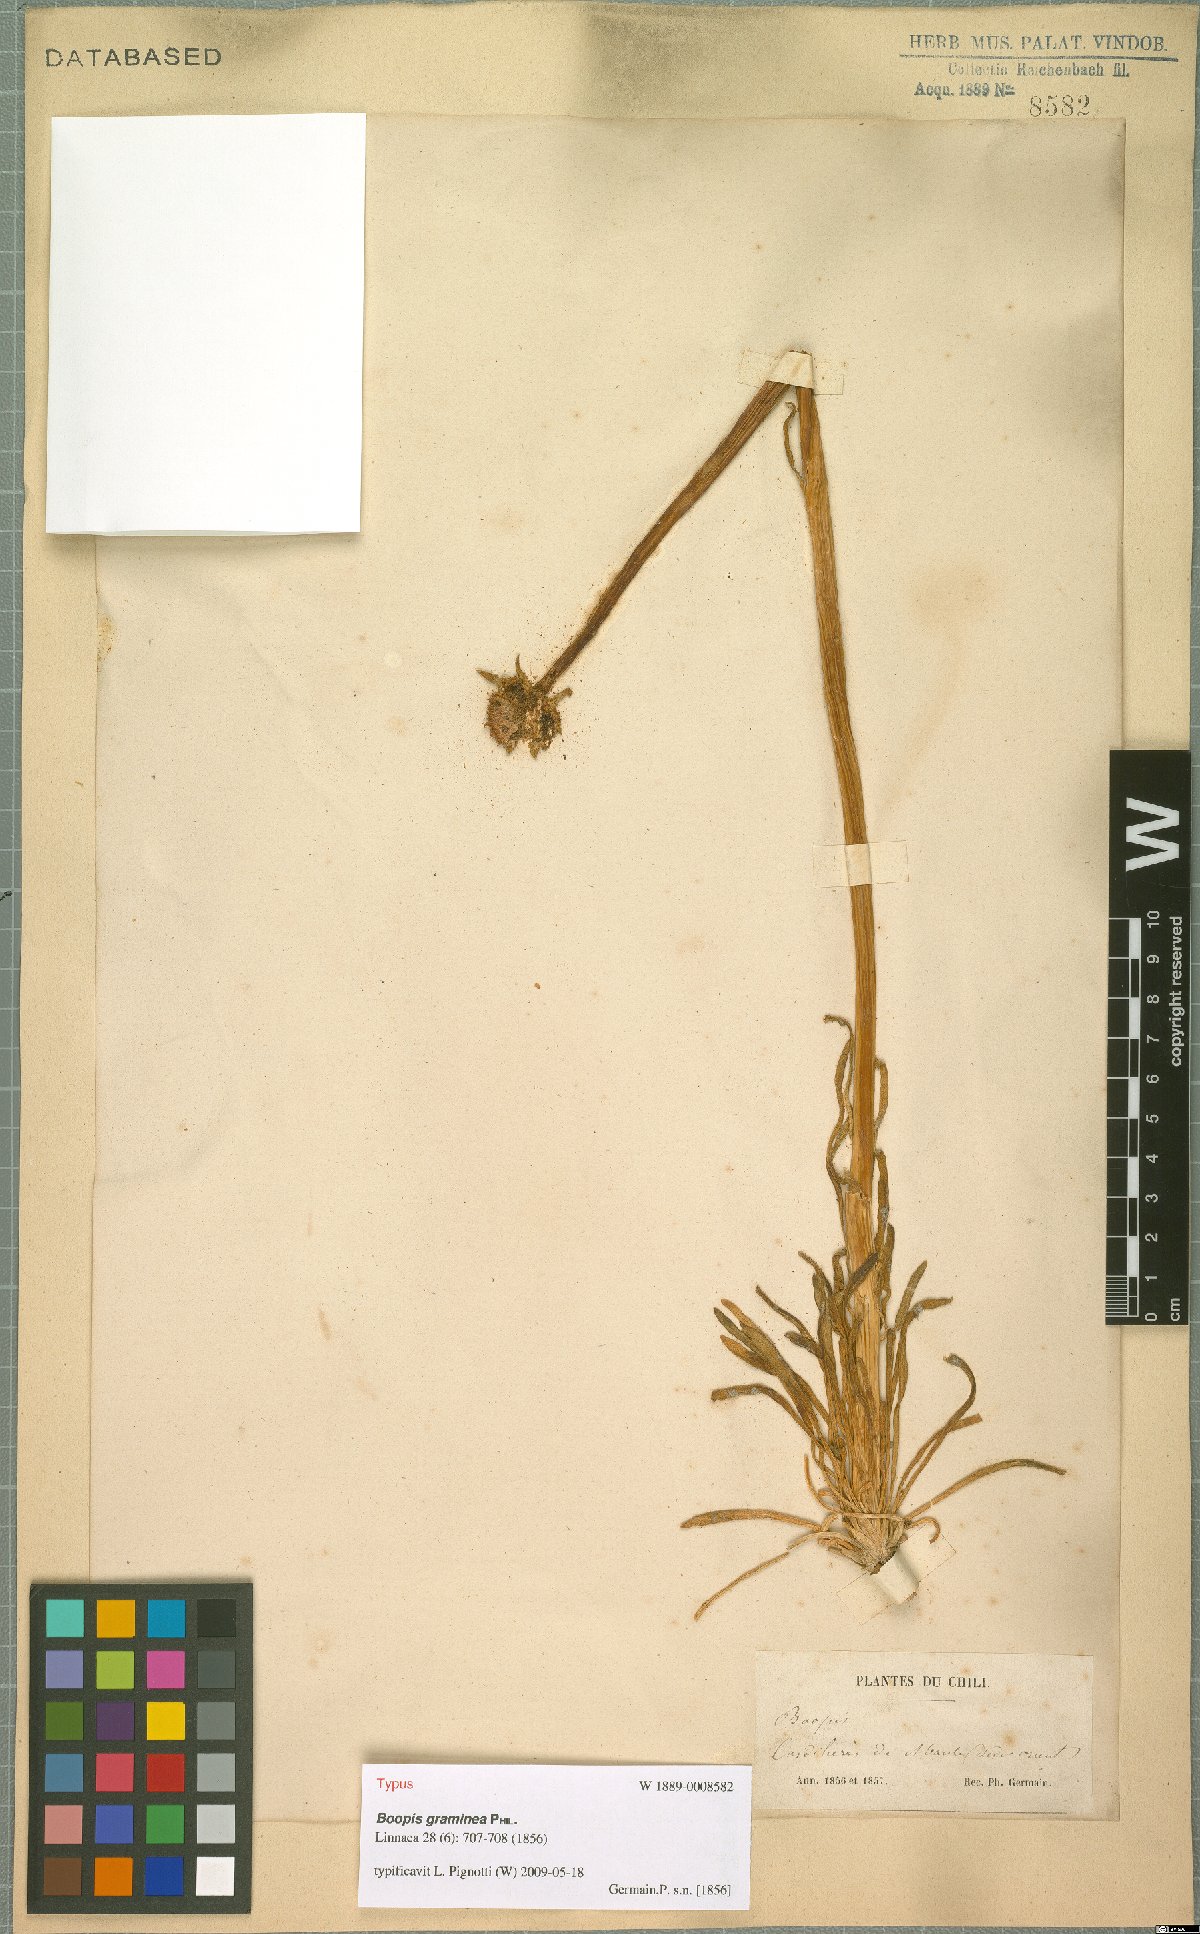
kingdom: Plantae
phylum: Tracheophyta
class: Magnoliopsida
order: Asterales
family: Calyceraceae
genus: Gamocarpha
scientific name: Gamocarpha graminea
